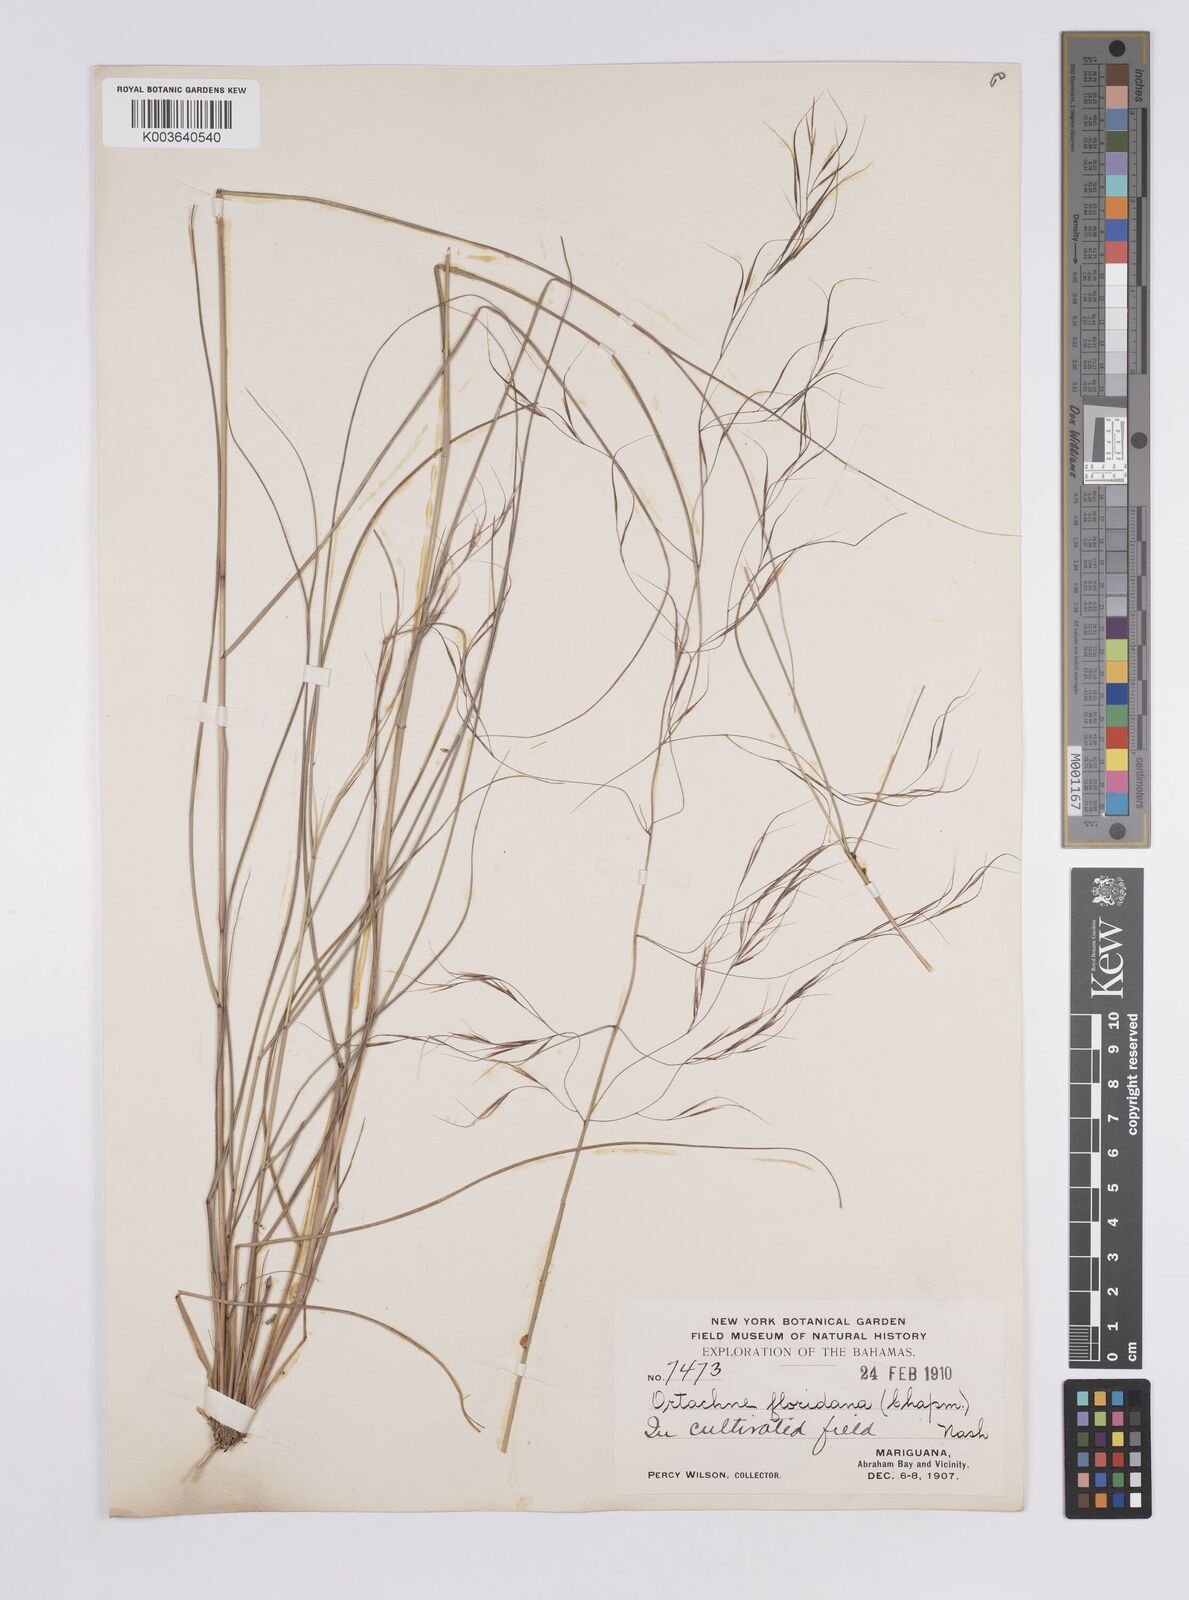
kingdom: Plantae
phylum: Tracheophyta
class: Liliopsida
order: Poales
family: Poaceae
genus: Aristida
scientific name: Aristida floridana
